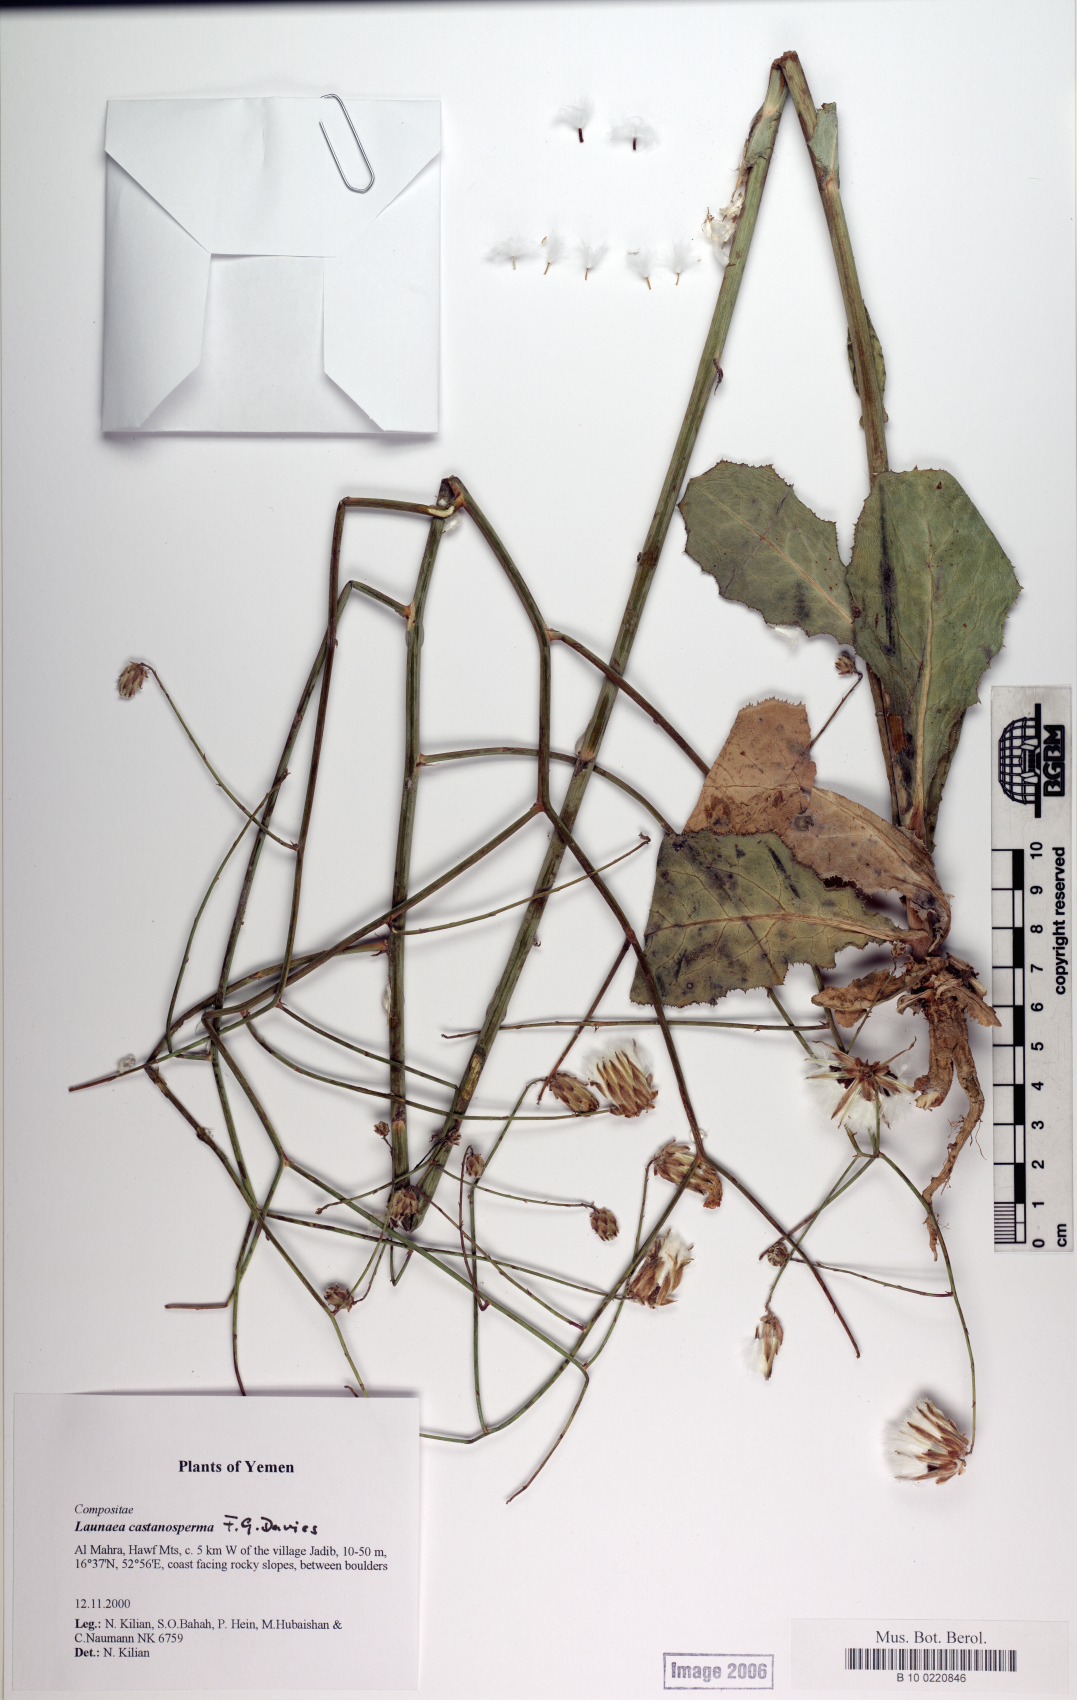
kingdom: Plantae
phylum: Tracheophyta
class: Magnoliopsida
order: Asterales
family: Asteraceae
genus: Launaea
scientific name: Launaea castanosperma
